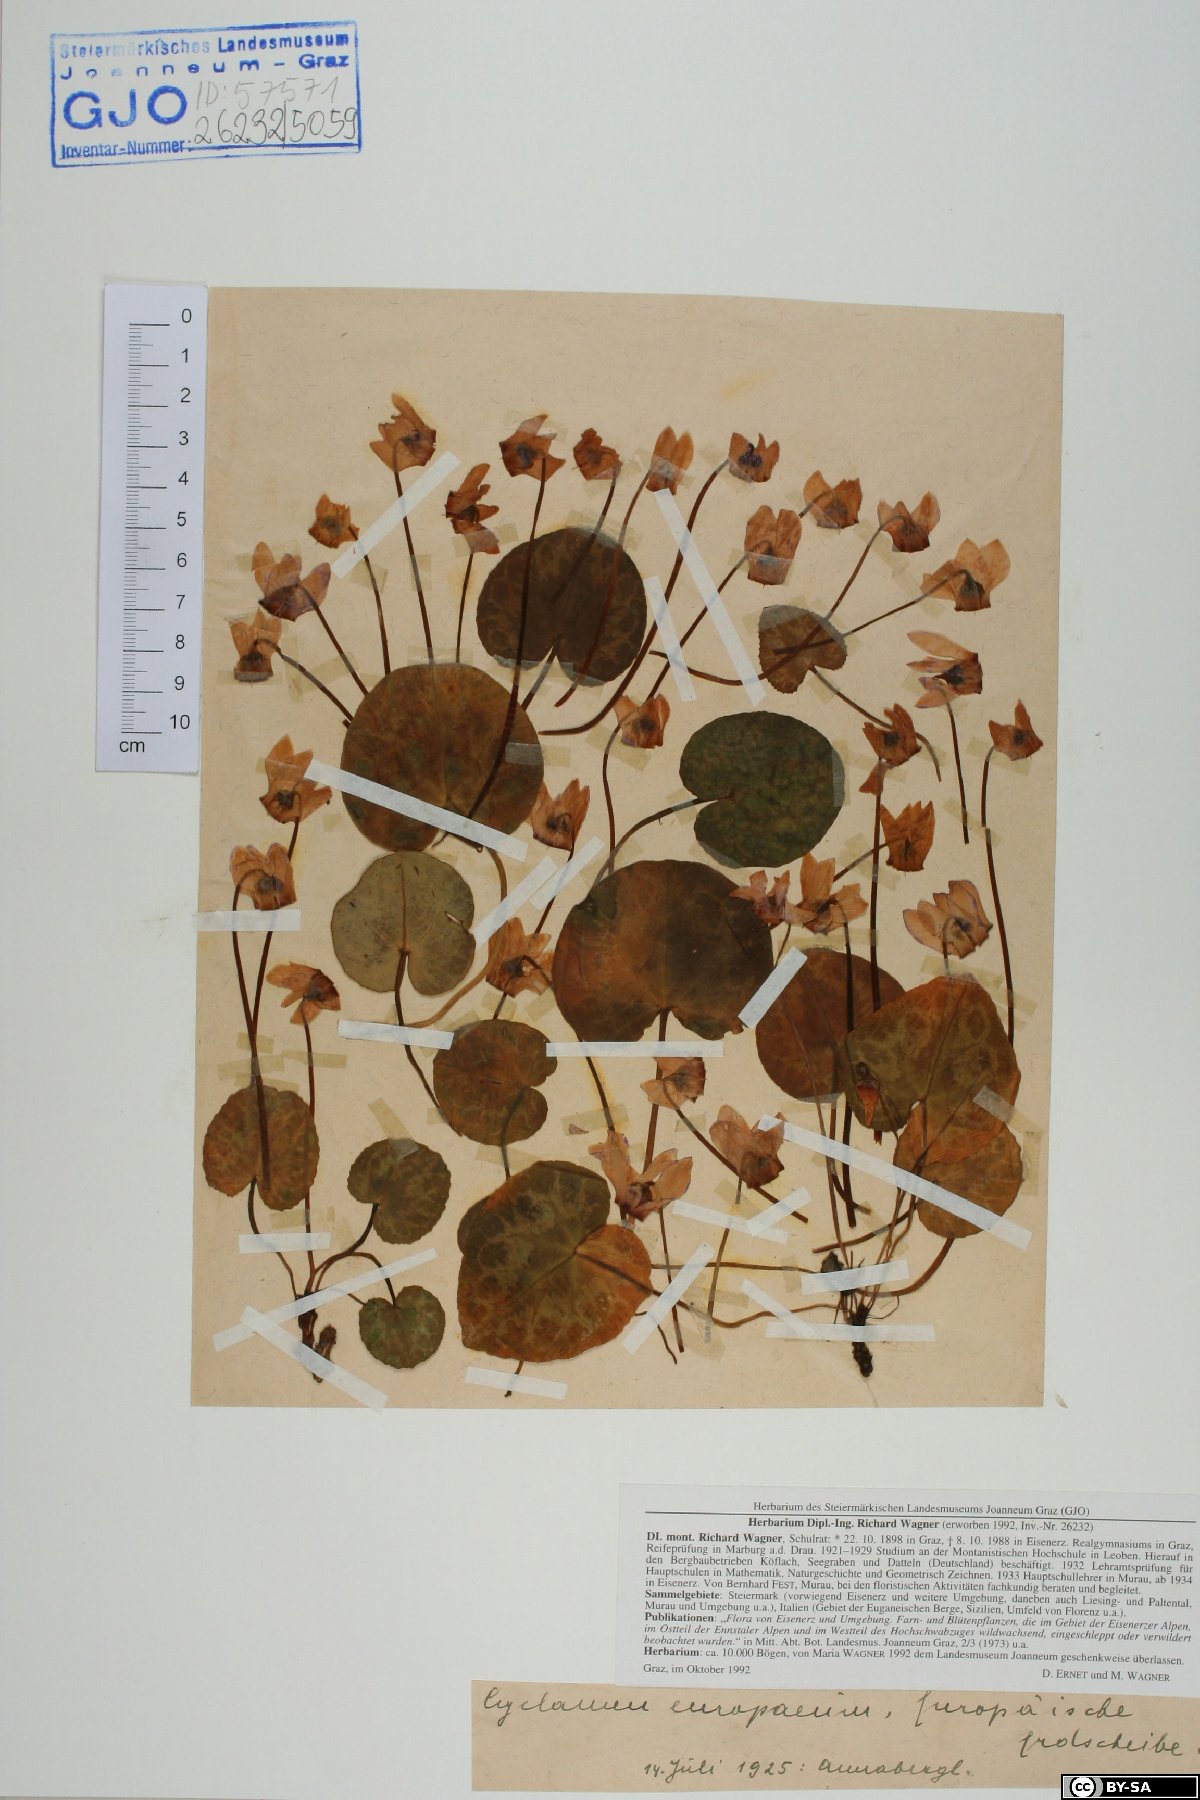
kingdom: Plantae
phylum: Tracheophyta
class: Magnoliopsida
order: Ericales
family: Primulaceae
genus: Cyclamen
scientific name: Cyclamen purpurascens
